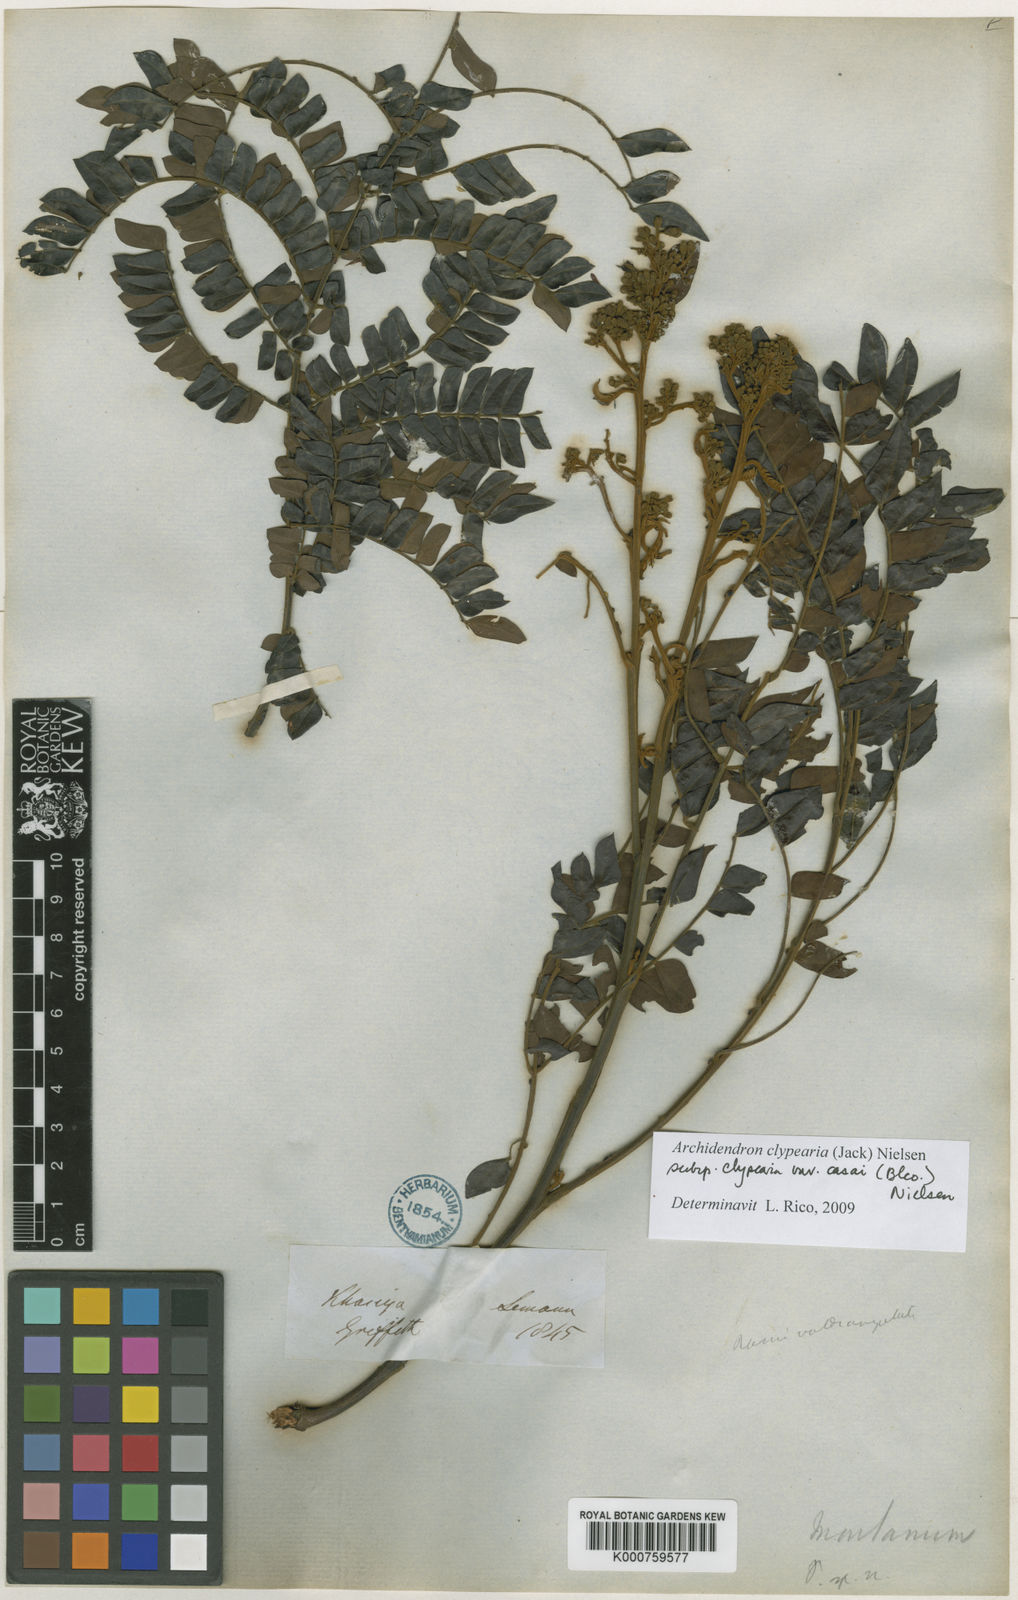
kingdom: Plantae
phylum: Tracheophyta
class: Magnoliopsida
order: Fabales
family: Fabaceae
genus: Archidendron
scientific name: Archidendron clypearia
